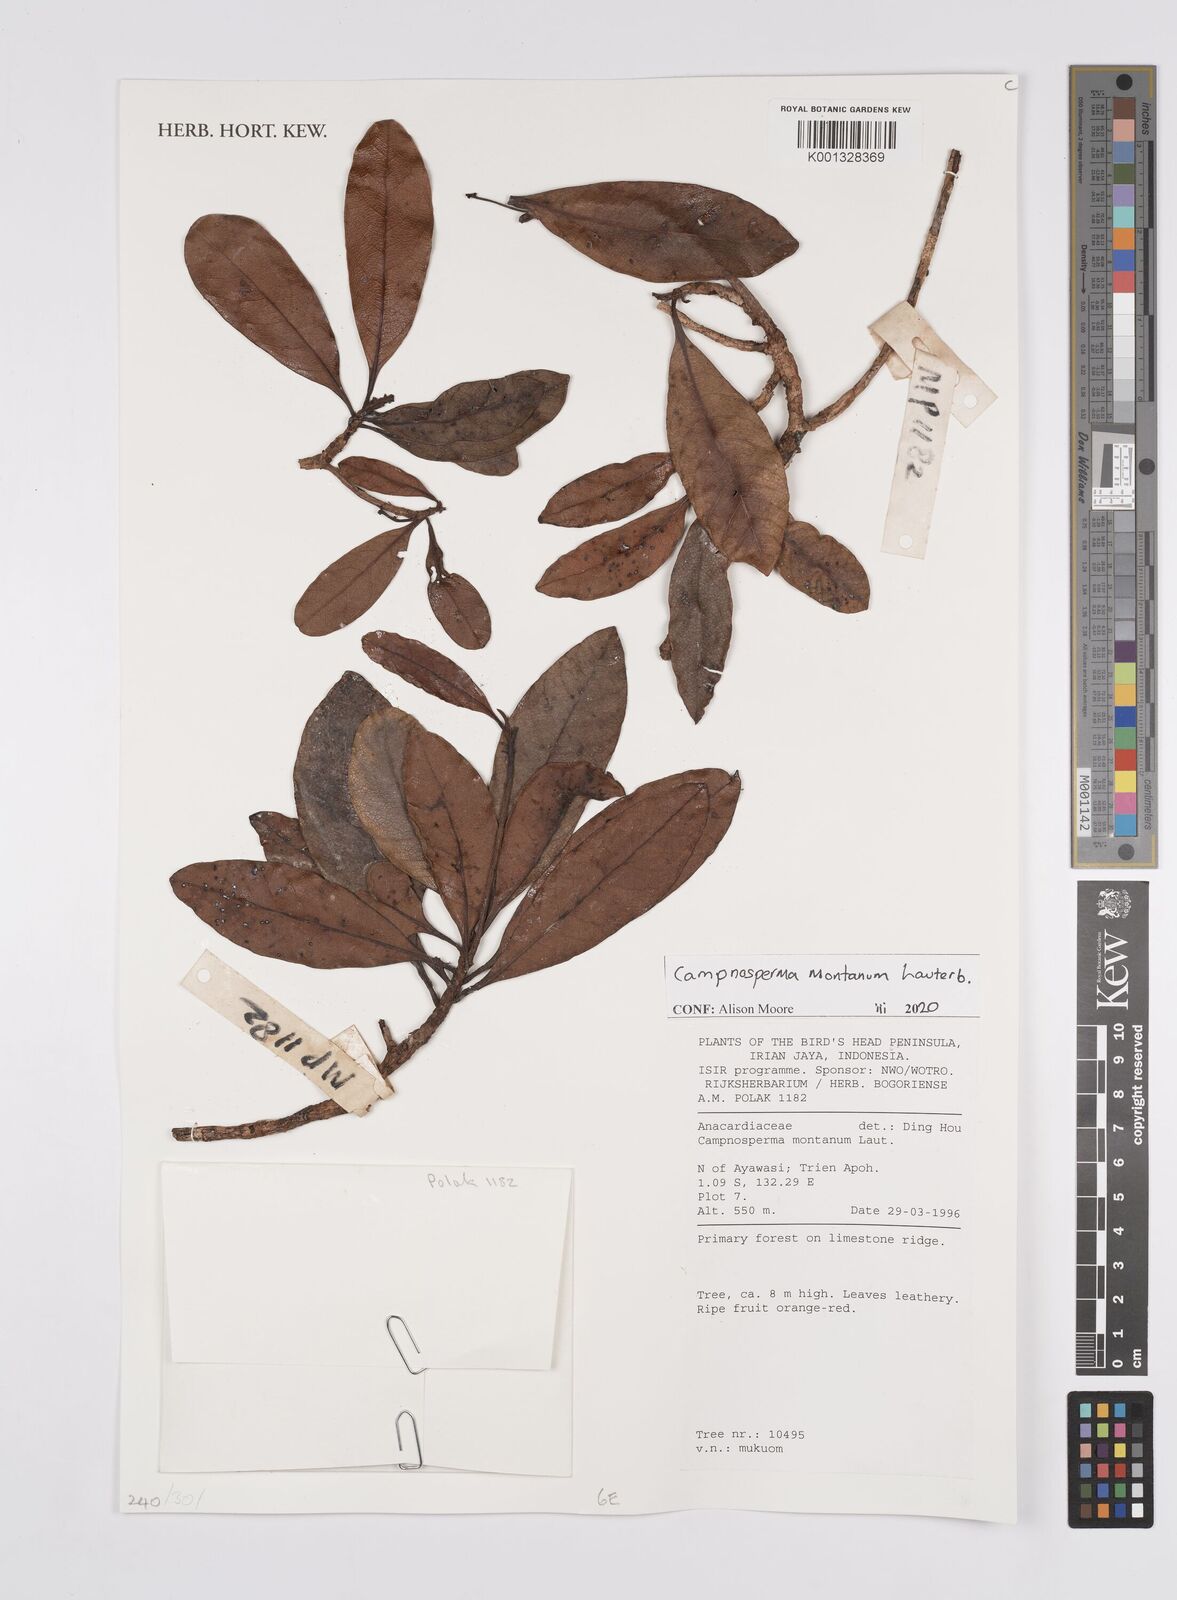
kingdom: Plantae
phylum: Tracheophyta
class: Magnoliopsida
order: Sapindales
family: Anacardiaceae
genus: Campnosperma
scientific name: Campnosperma montanum
